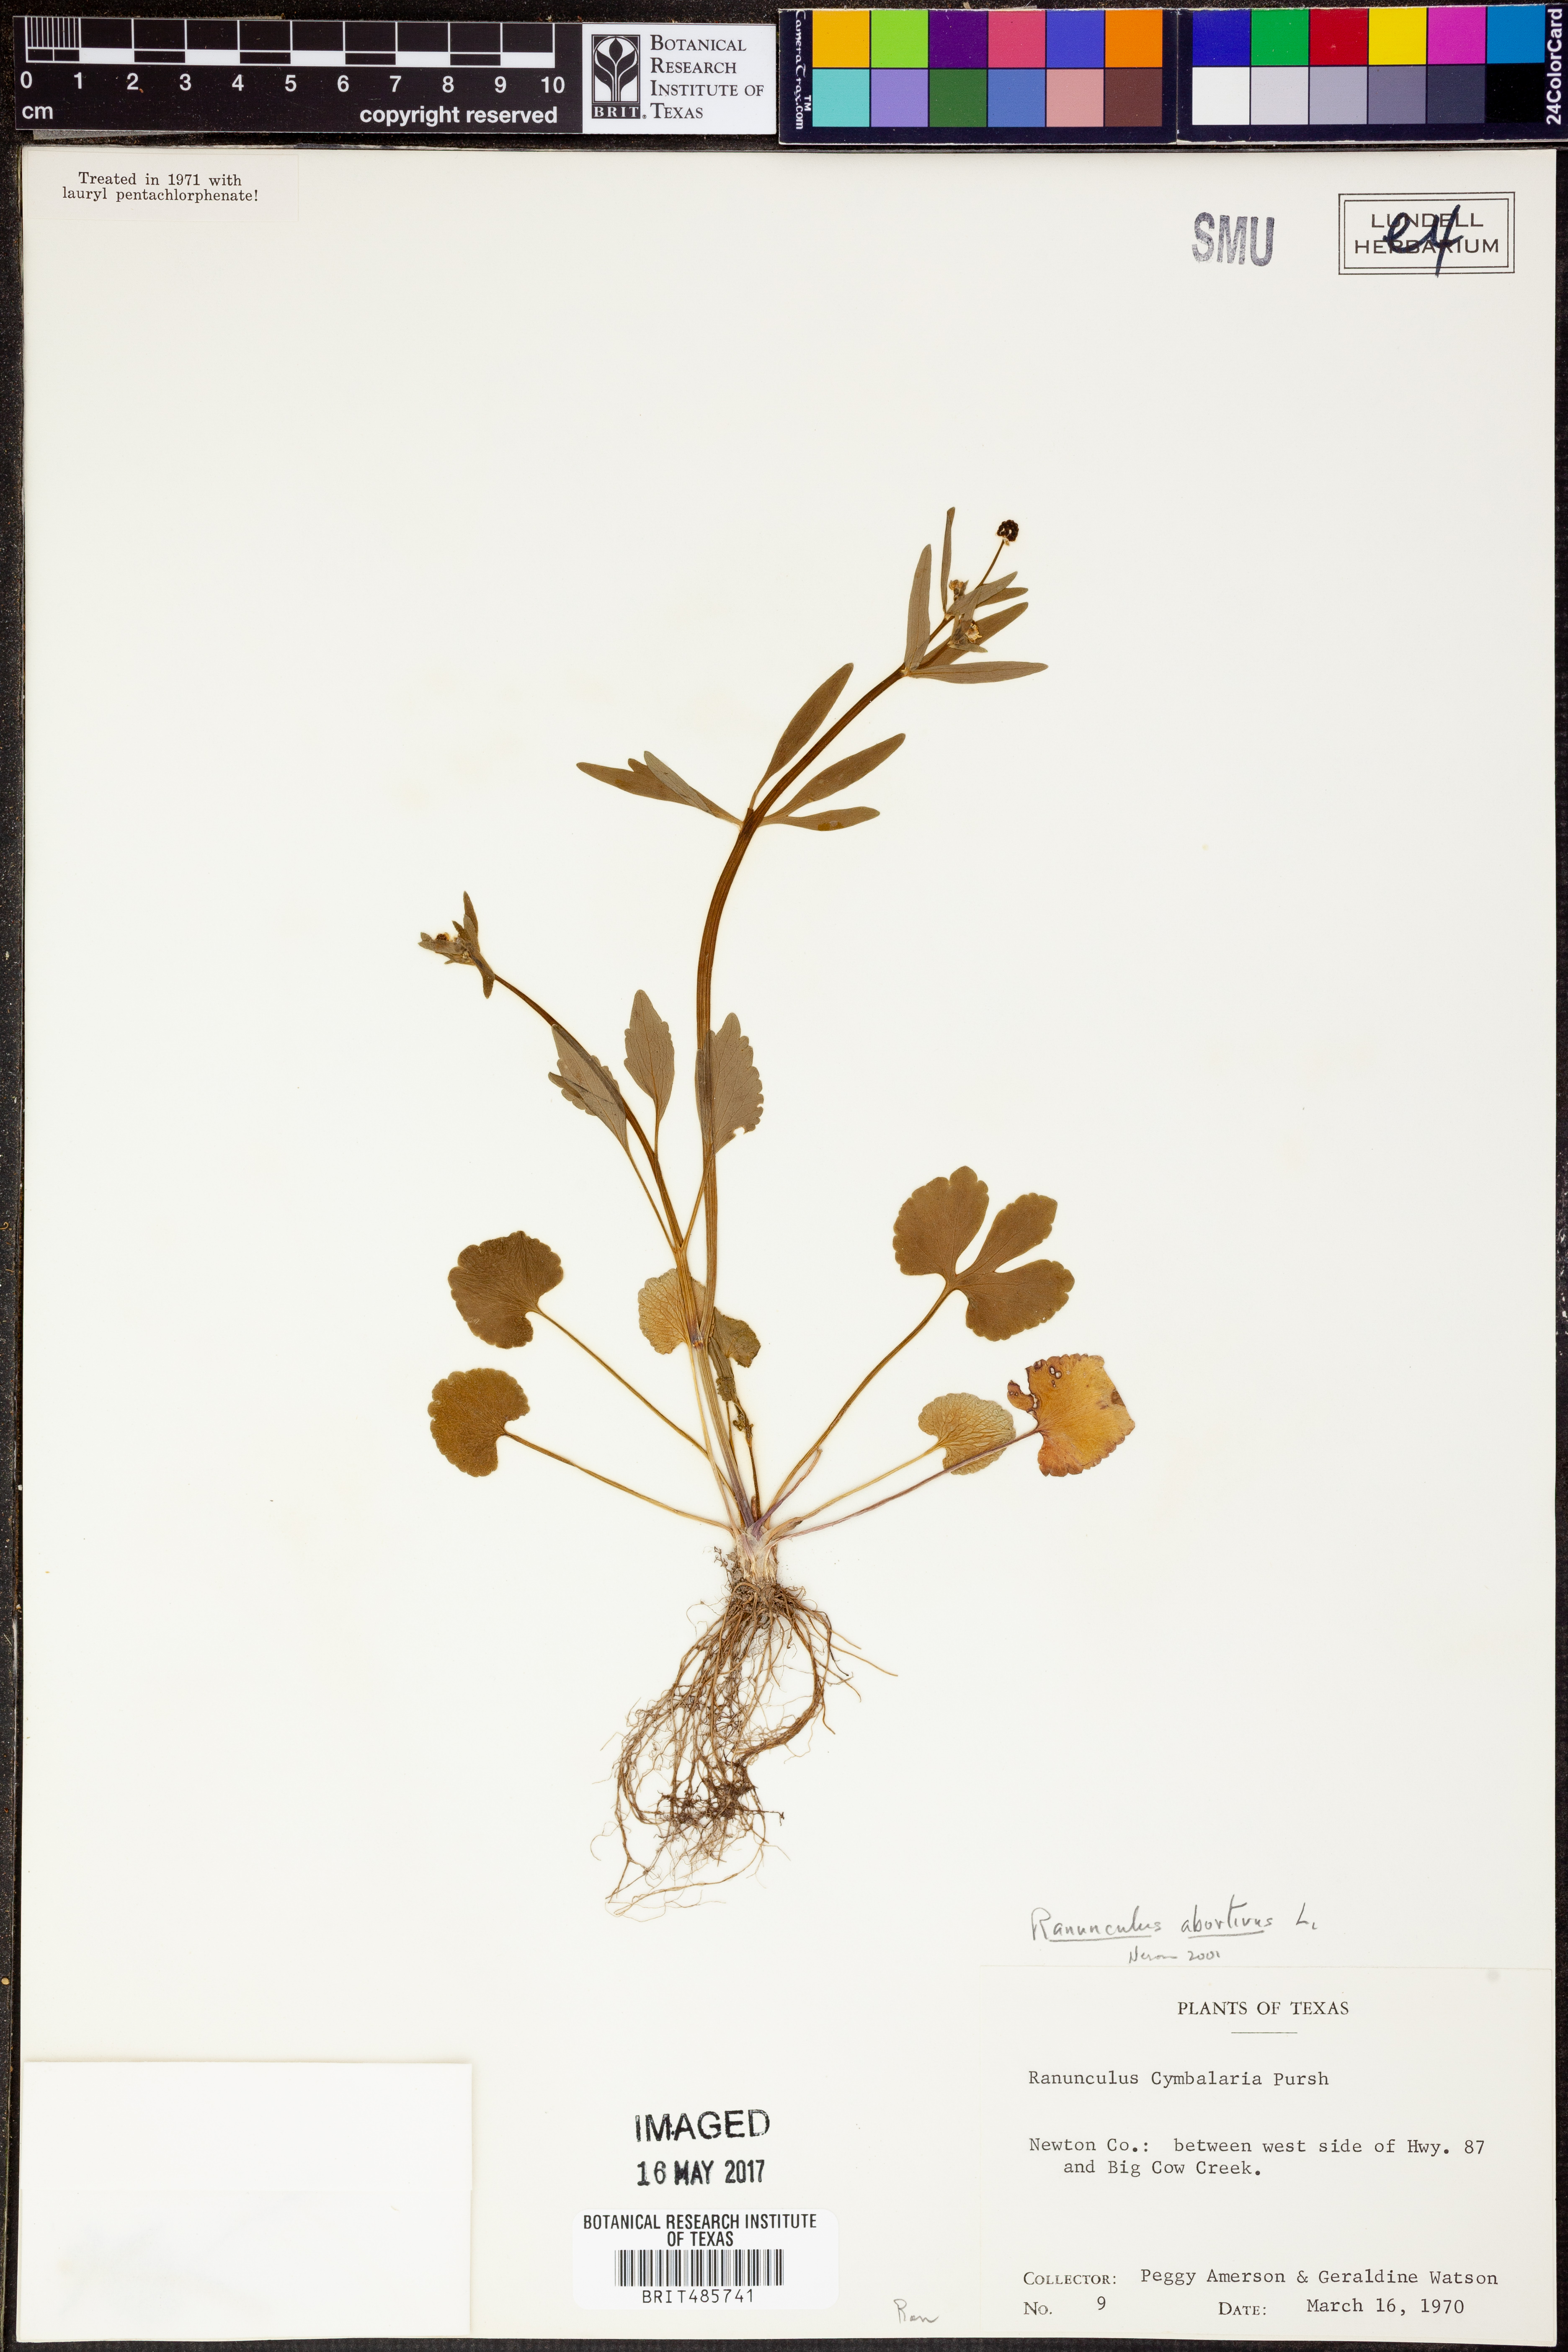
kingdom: Plantae
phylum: Tracheophyta
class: Magnoliopsida
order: Ranunculales
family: Ranunculaceae
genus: Halerpestes
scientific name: Halerpestes cymbalaria
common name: Seaside crowfoot
